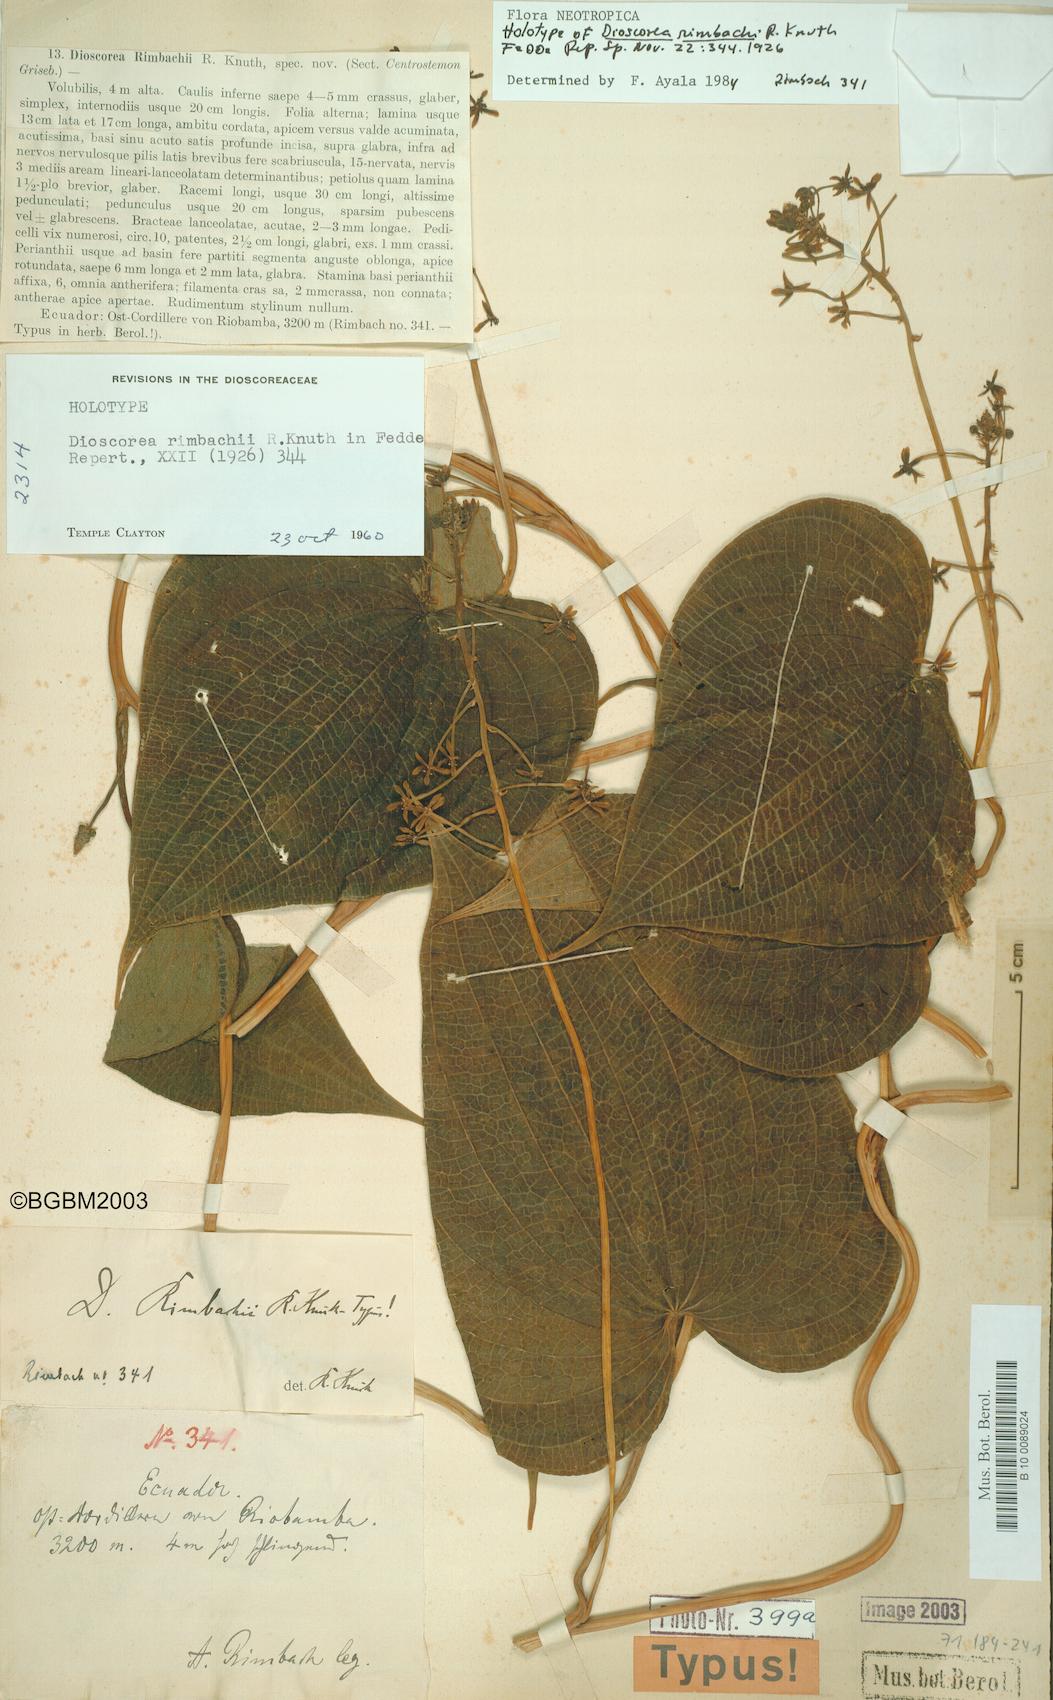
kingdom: Plantae
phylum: Tracheophyta
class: Liliopsida
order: Dioscoreales
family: Dioscoreaceae
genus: Dioscorea
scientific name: Dioscorea rimbachii
